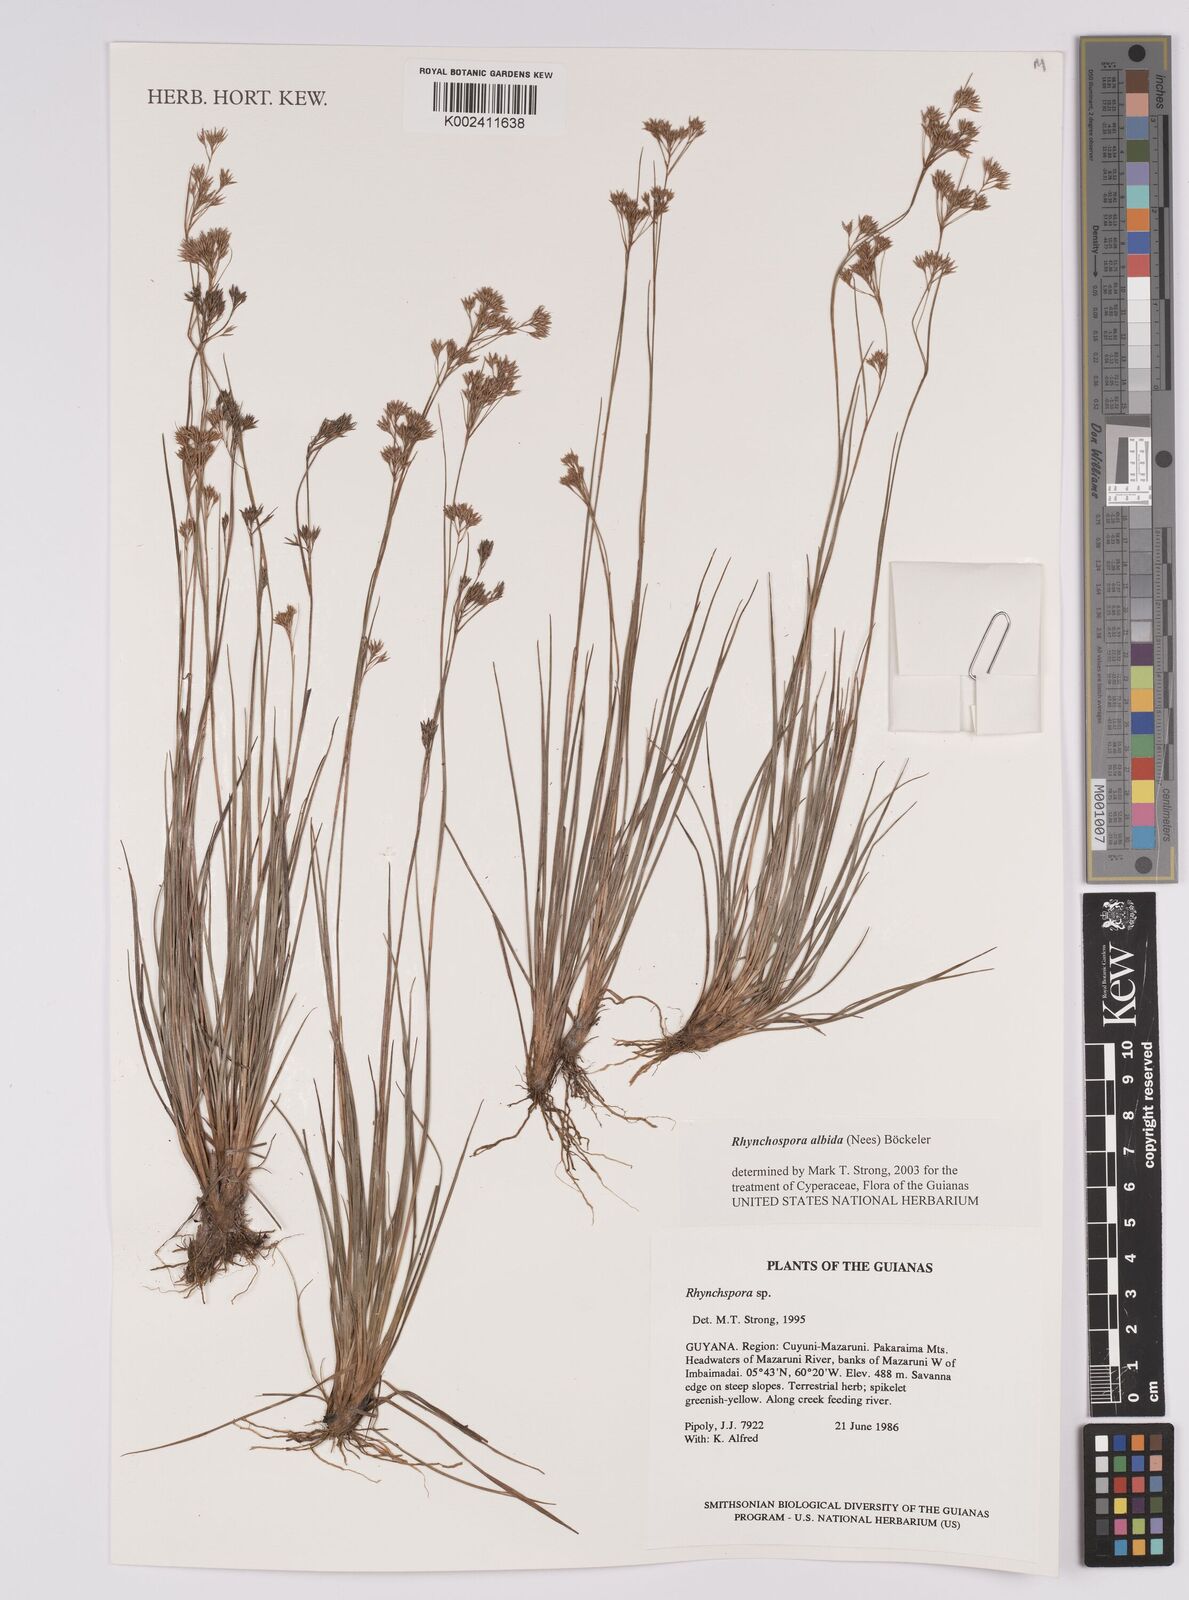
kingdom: Plantae
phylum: Tracheophyta
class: Liliopsida
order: Poales
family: Cyperaceae
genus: Rhynchospora
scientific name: Rhynchospora albida
